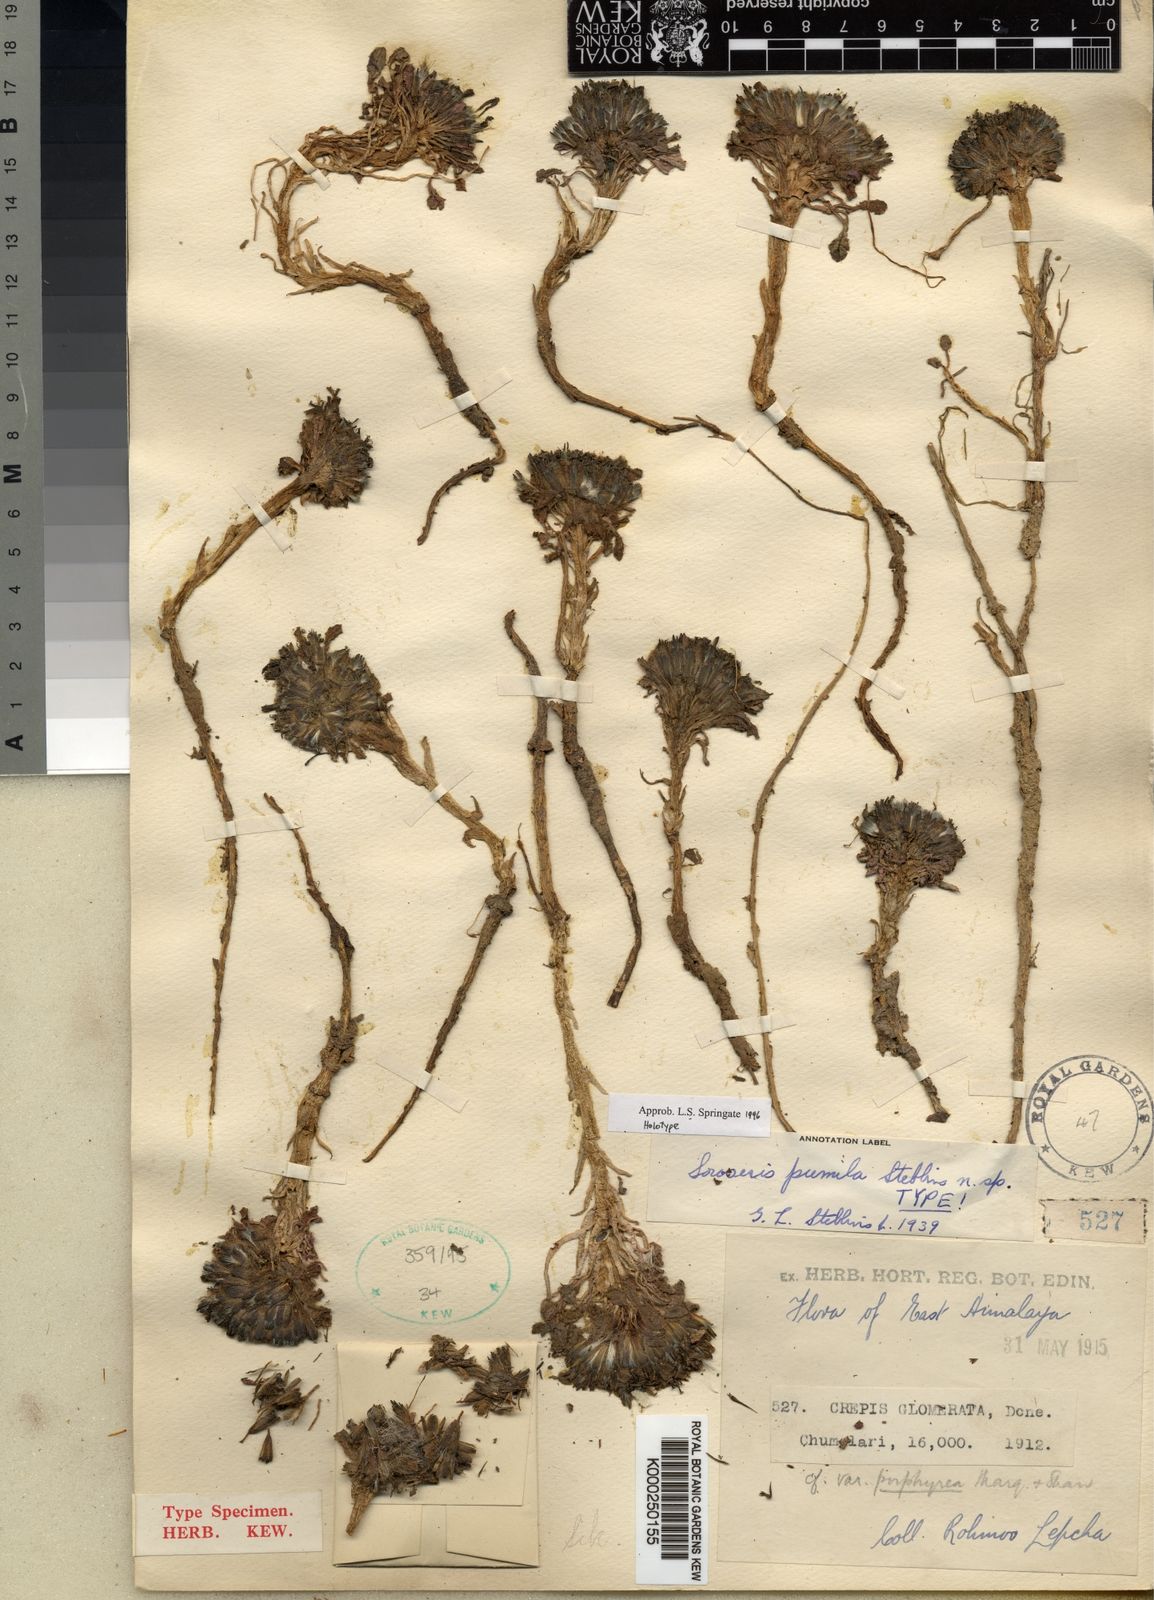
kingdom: Plantae
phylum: Tracheophyta
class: Magnoliopsida
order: Asterales
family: Asteraceae
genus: Soroseris
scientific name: Soroseris pumila
